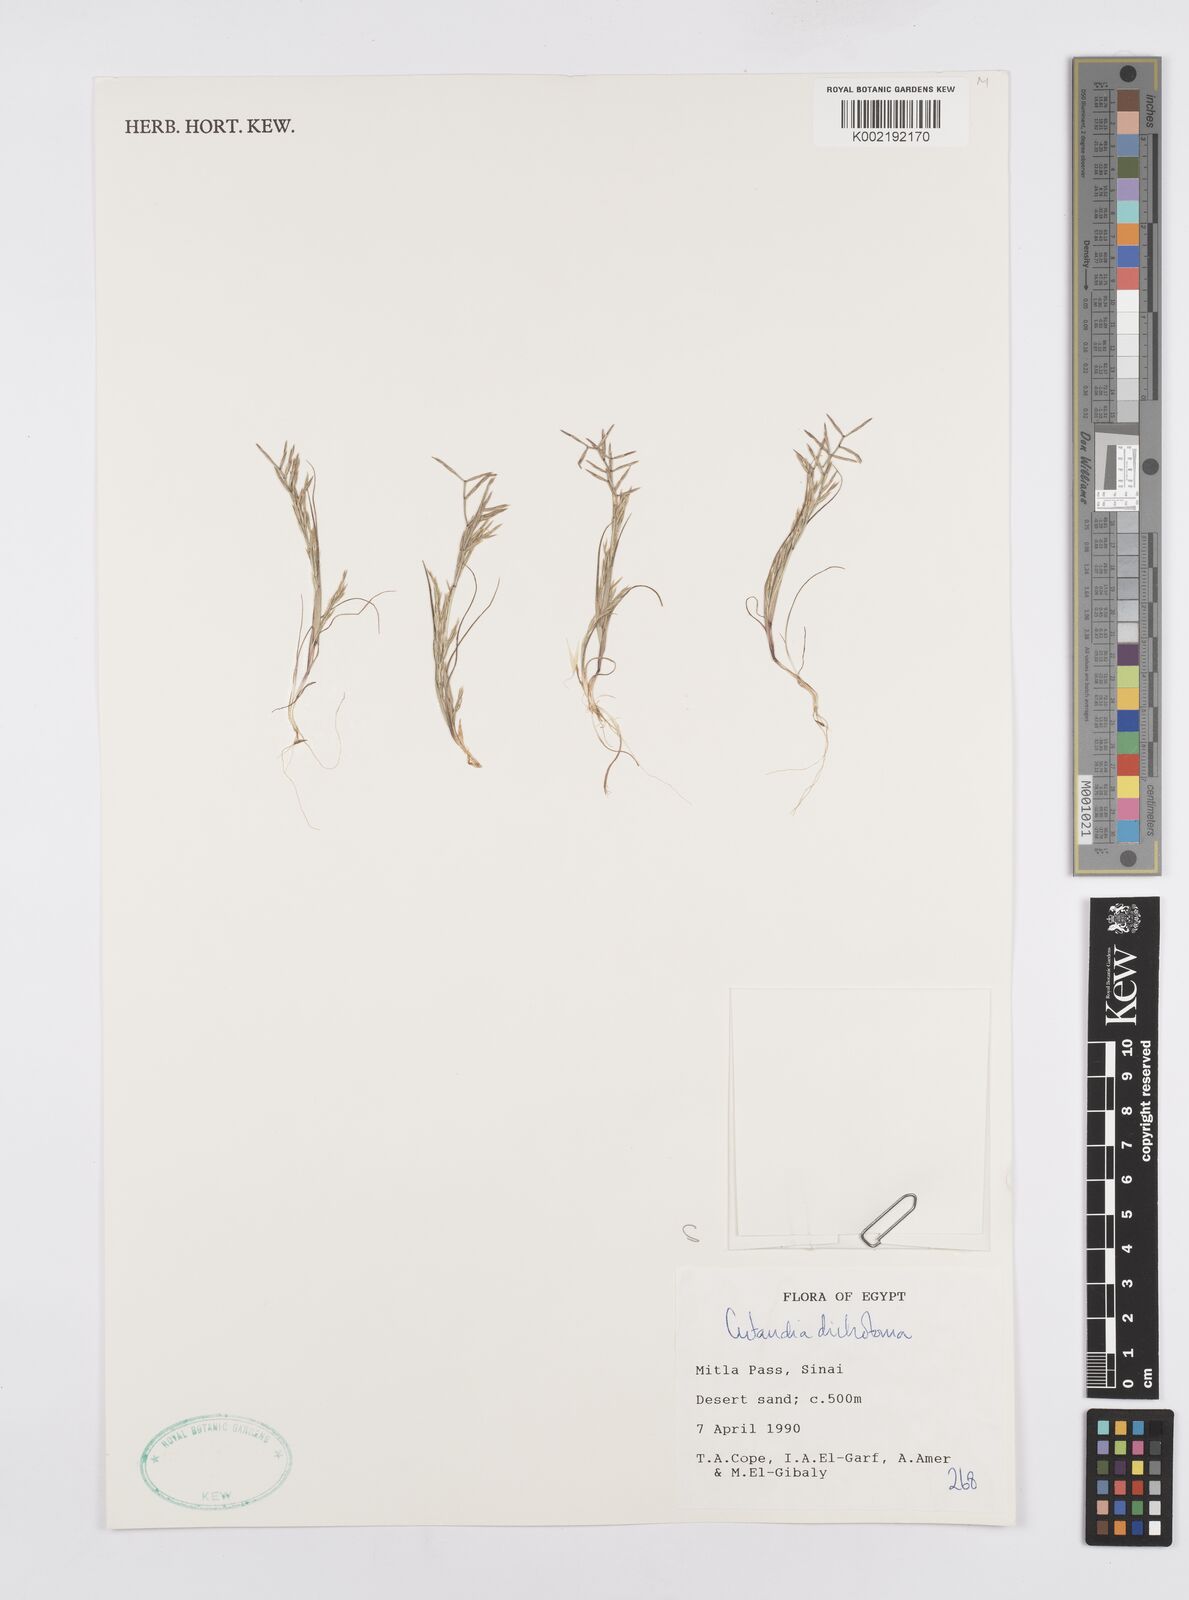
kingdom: Plantae
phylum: Tracheophyta
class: Liliopsida
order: Poales
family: Poaceae
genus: Cutandia
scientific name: Cutandia dichotoma
